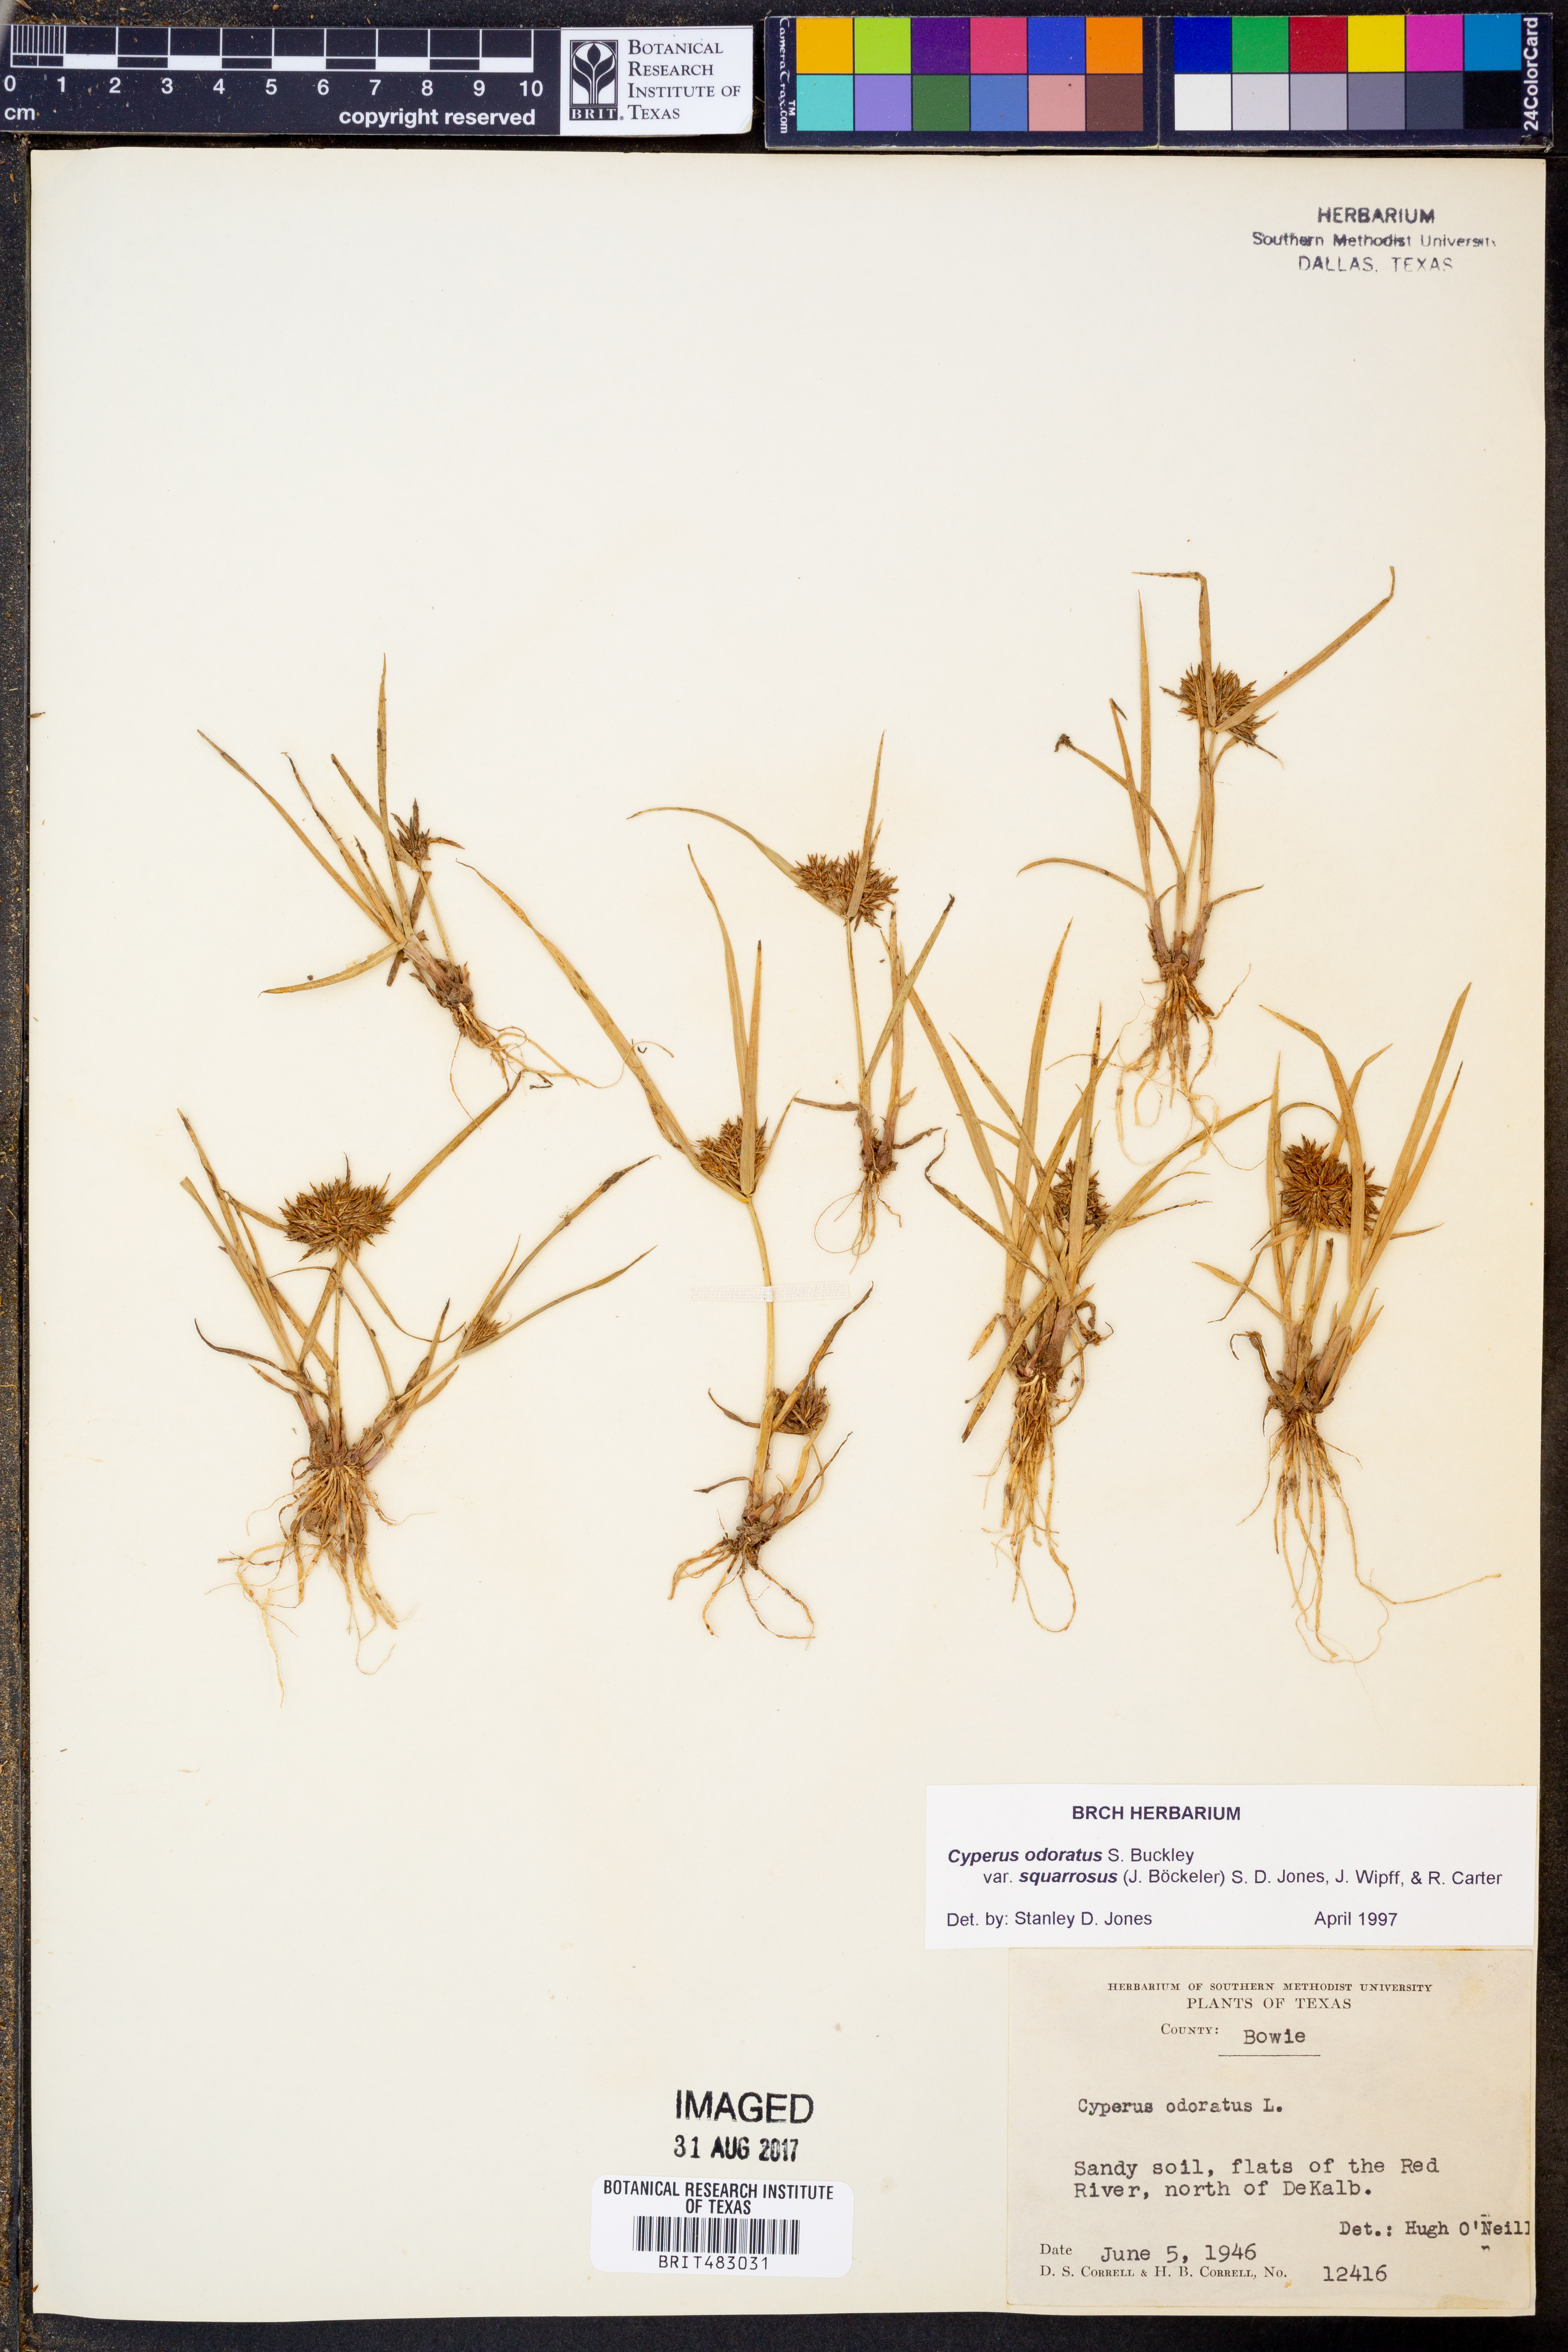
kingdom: Plantae
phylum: Tracheophyta
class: Liliopsida
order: Poales
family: Cyperaceae
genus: Cyperus
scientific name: Cyperus odoratus
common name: Fragrant flatsedge
